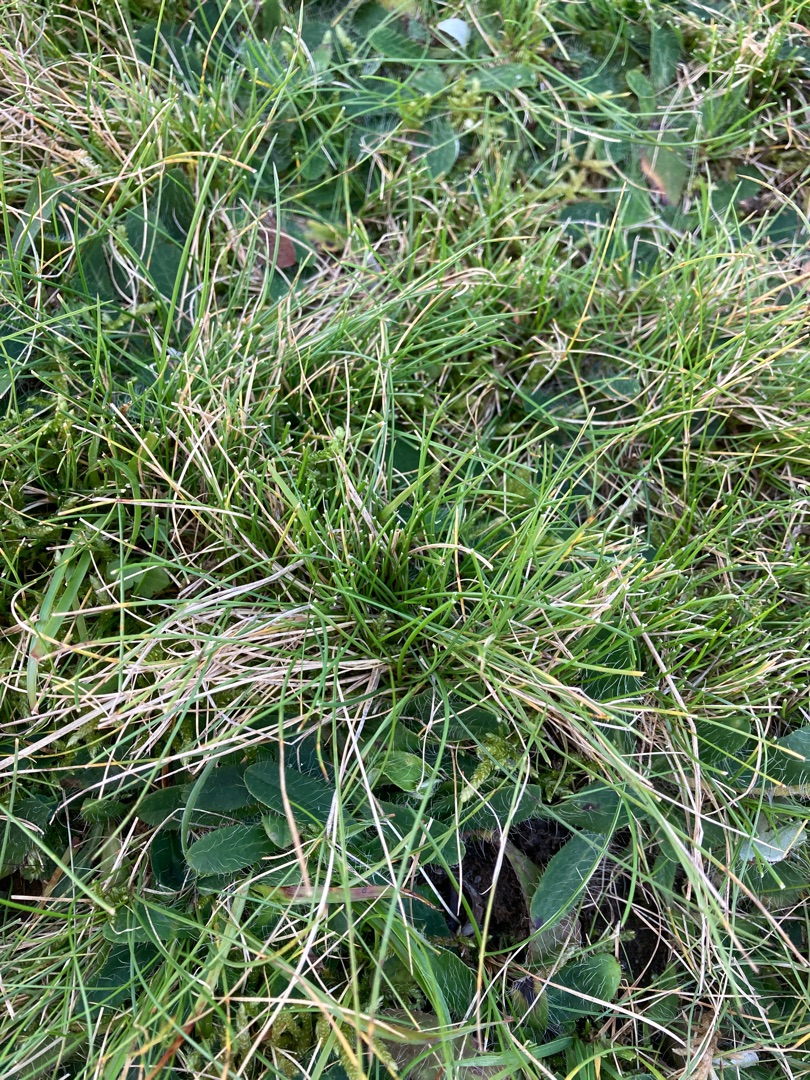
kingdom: Plantae
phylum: Tracheophyta
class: Liliopsida
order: Poales
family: Poaceae
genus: Festuca
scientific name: Festuca ovina
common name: Fåre-svingel
